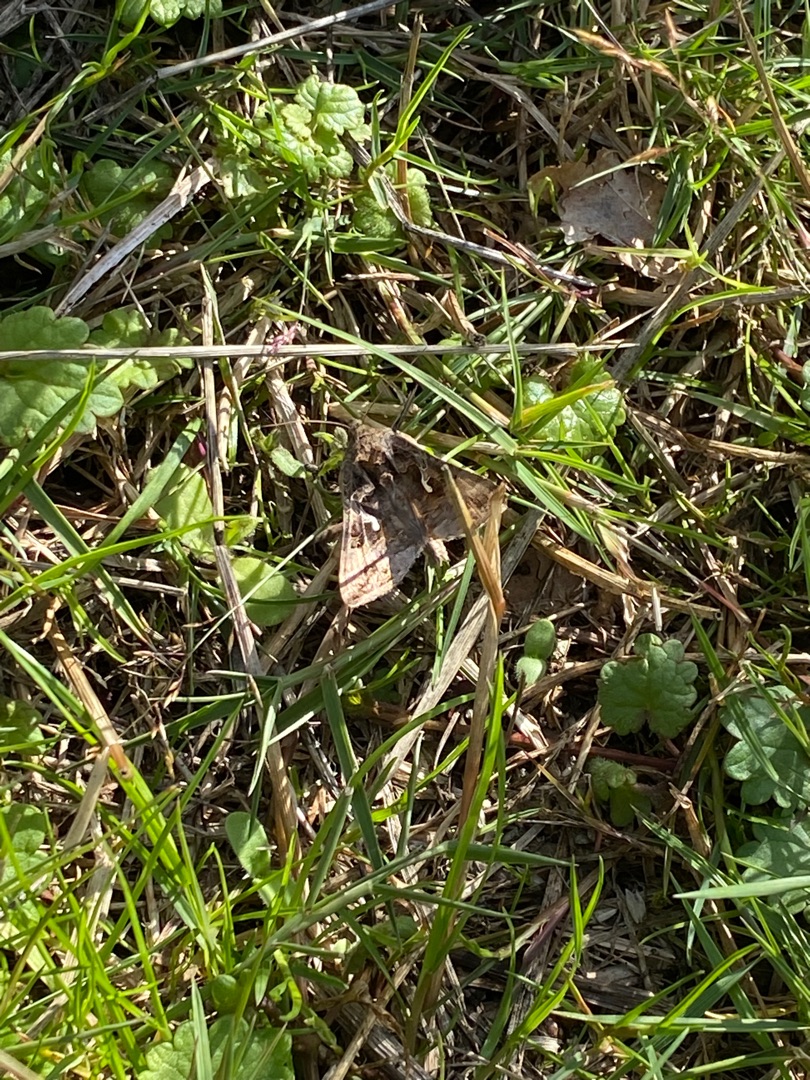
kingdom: Animalia
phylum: Arthropoda
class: Insecta
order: Lepidoptera
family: Noctuidae
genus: Autographa
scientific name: Autographa gamma
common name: Gammaugle
